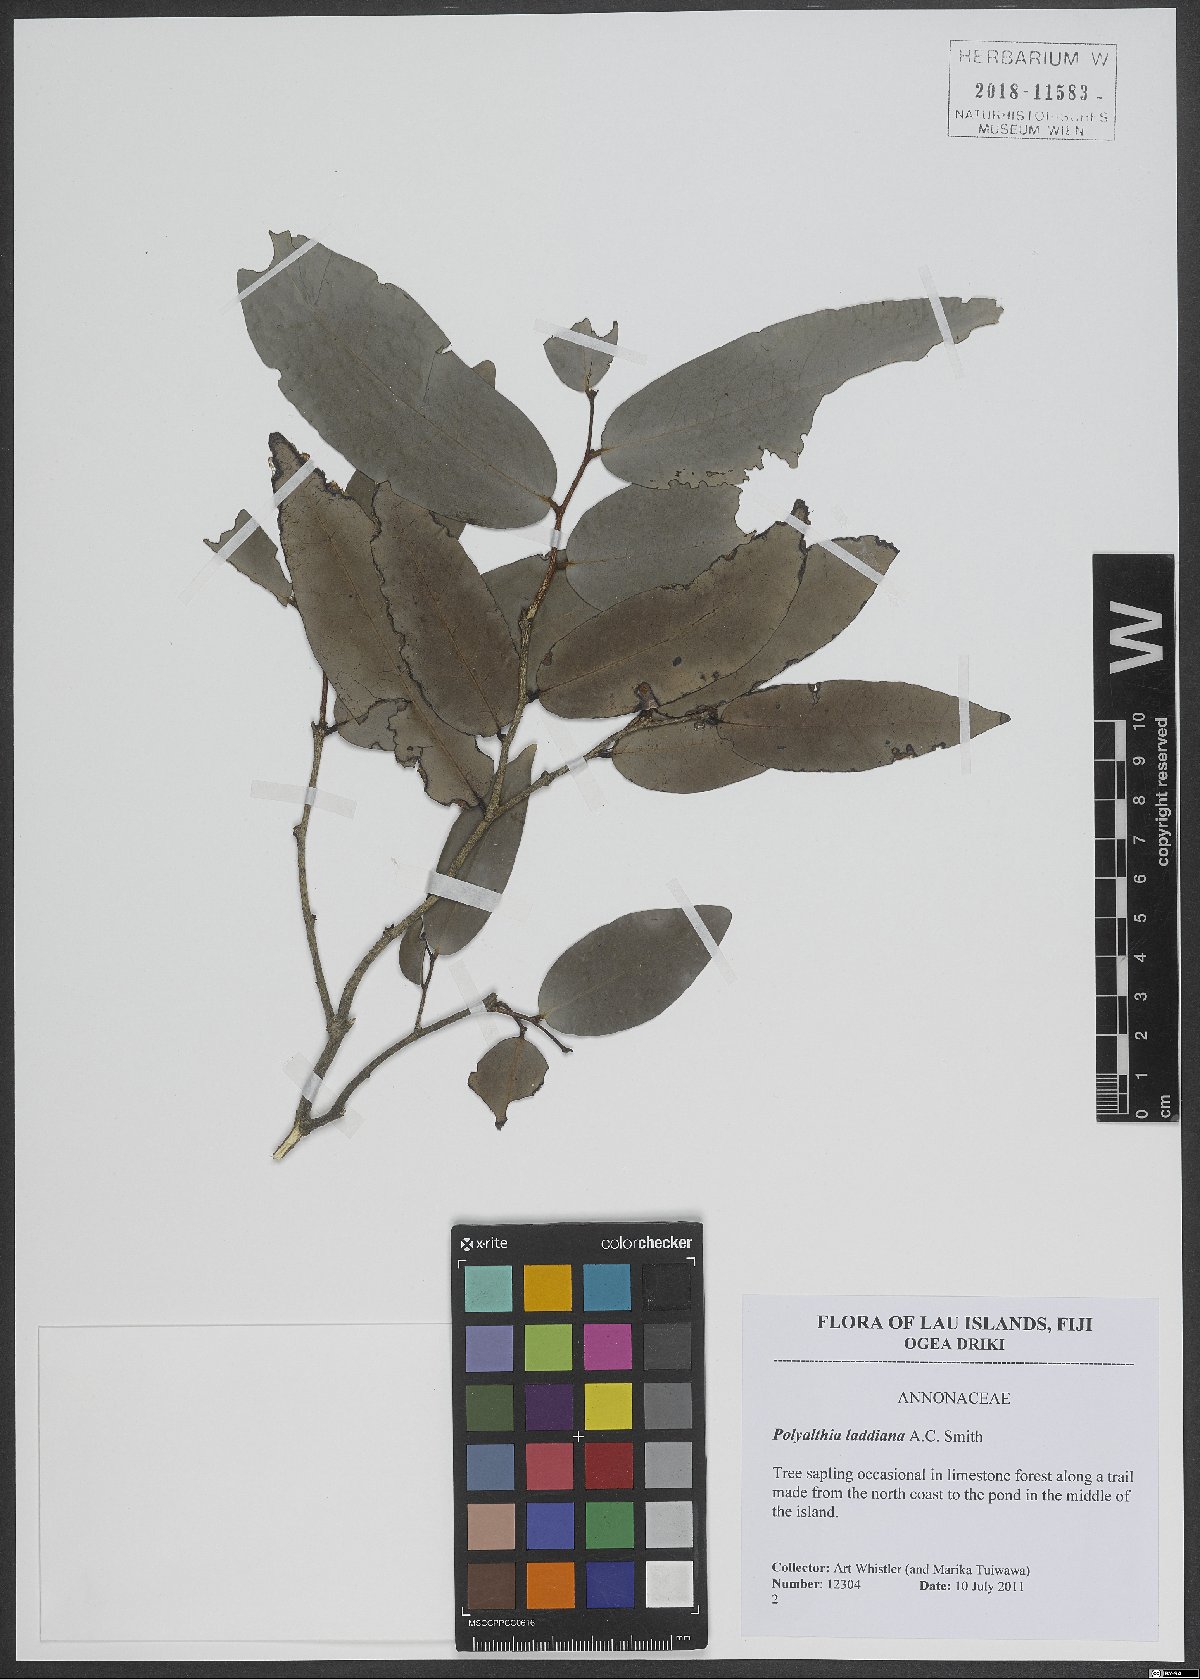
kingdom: Plantae
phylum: Tracheophyta
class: Magnoliopsida
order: Magnoliales
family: Annonaceae
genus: Polyalthia
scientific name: Polyalthia laddiana
